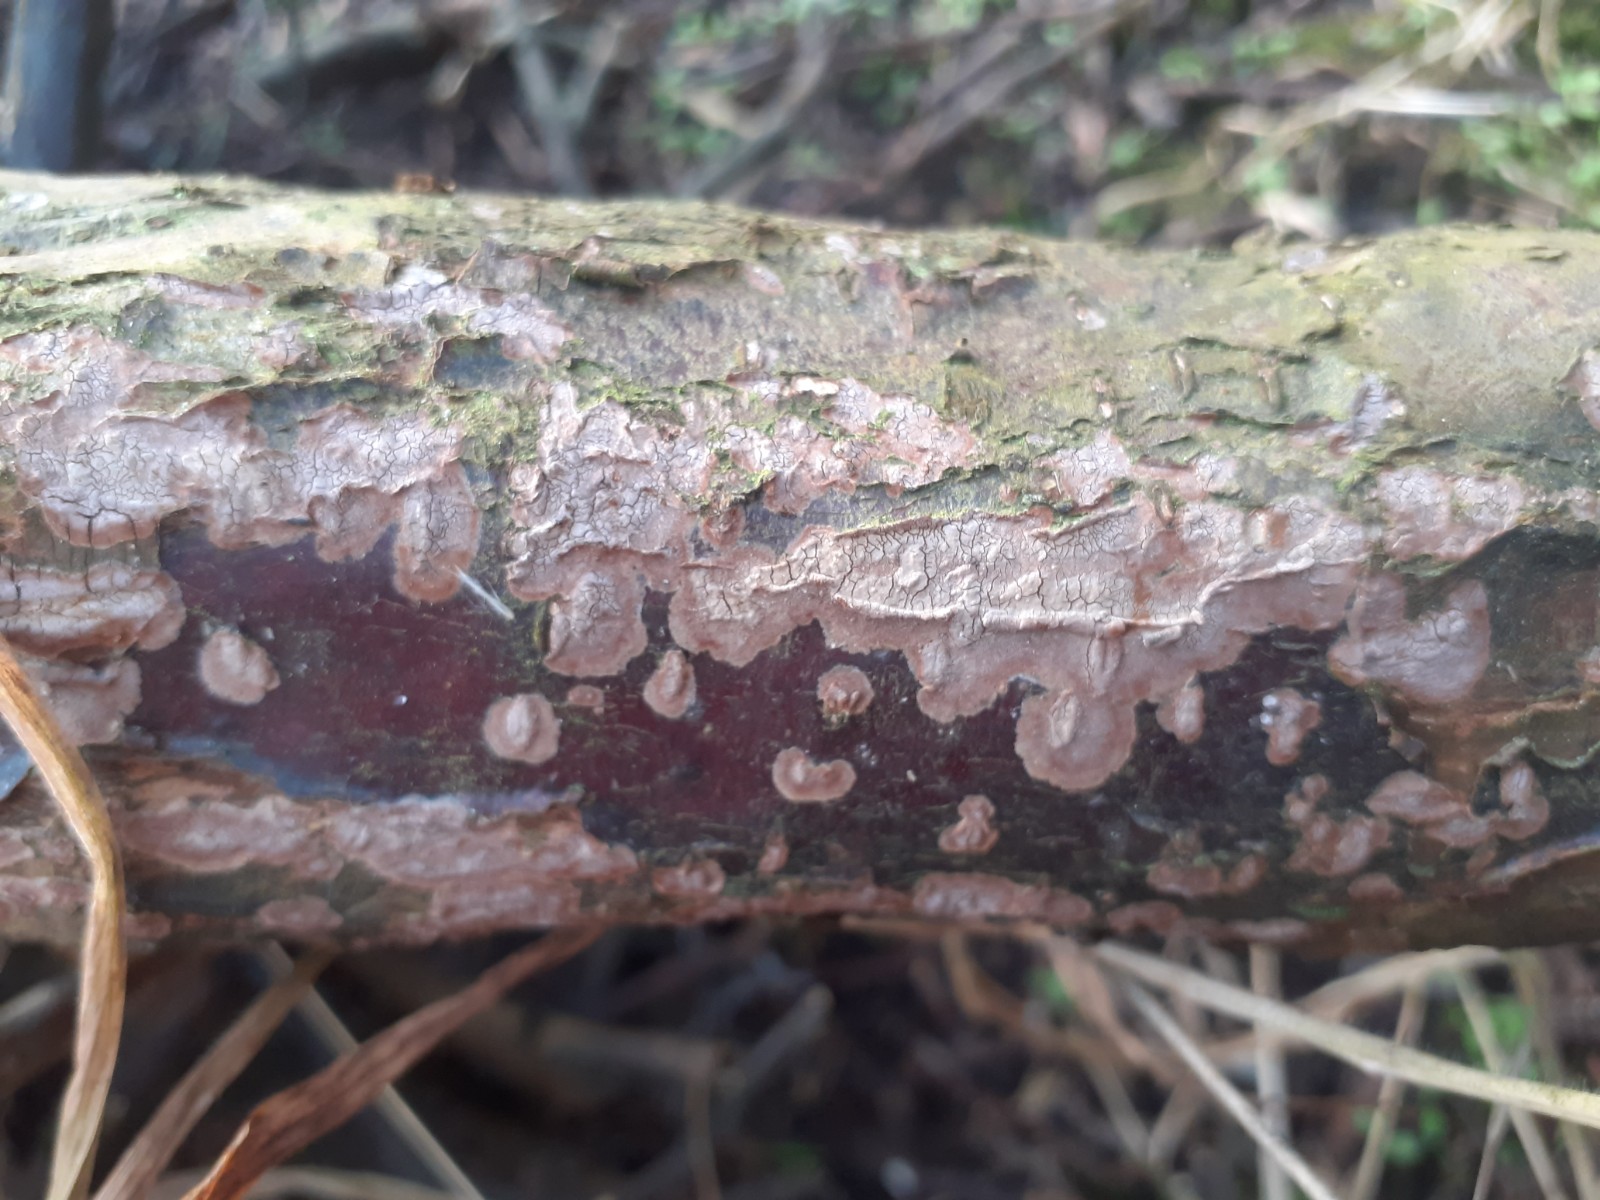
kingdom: Fungi
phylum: Basidiomycota
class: Agaricomycetes
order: Hymenochaetales
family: Hymenochaetaceae
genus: Hydnoporia
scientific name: Hydnoporia corrugata
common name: sprække-ruslædersvamp
